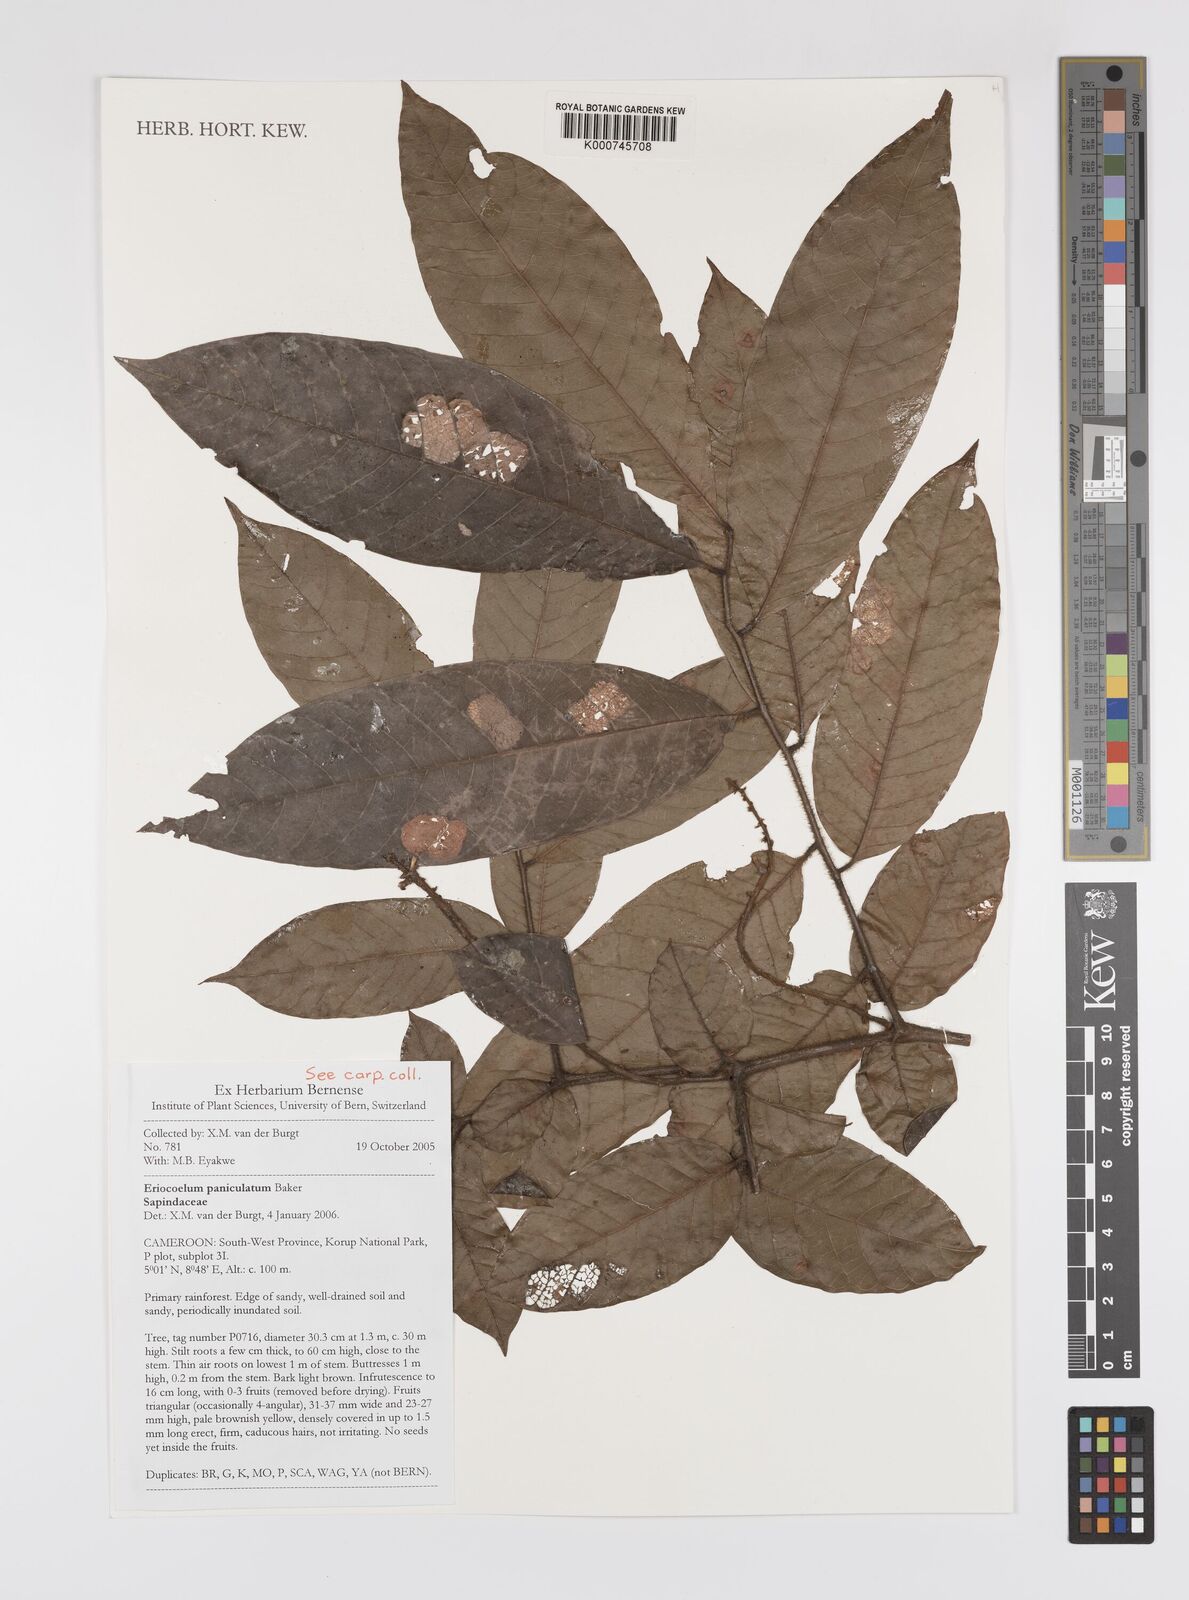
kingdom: Plantae
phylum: Tracheophyta
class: Magnoliopsida
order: Sapindales
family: Sapindaceae
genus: Eriocoelum
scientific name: Eriocoelum paniculatum
